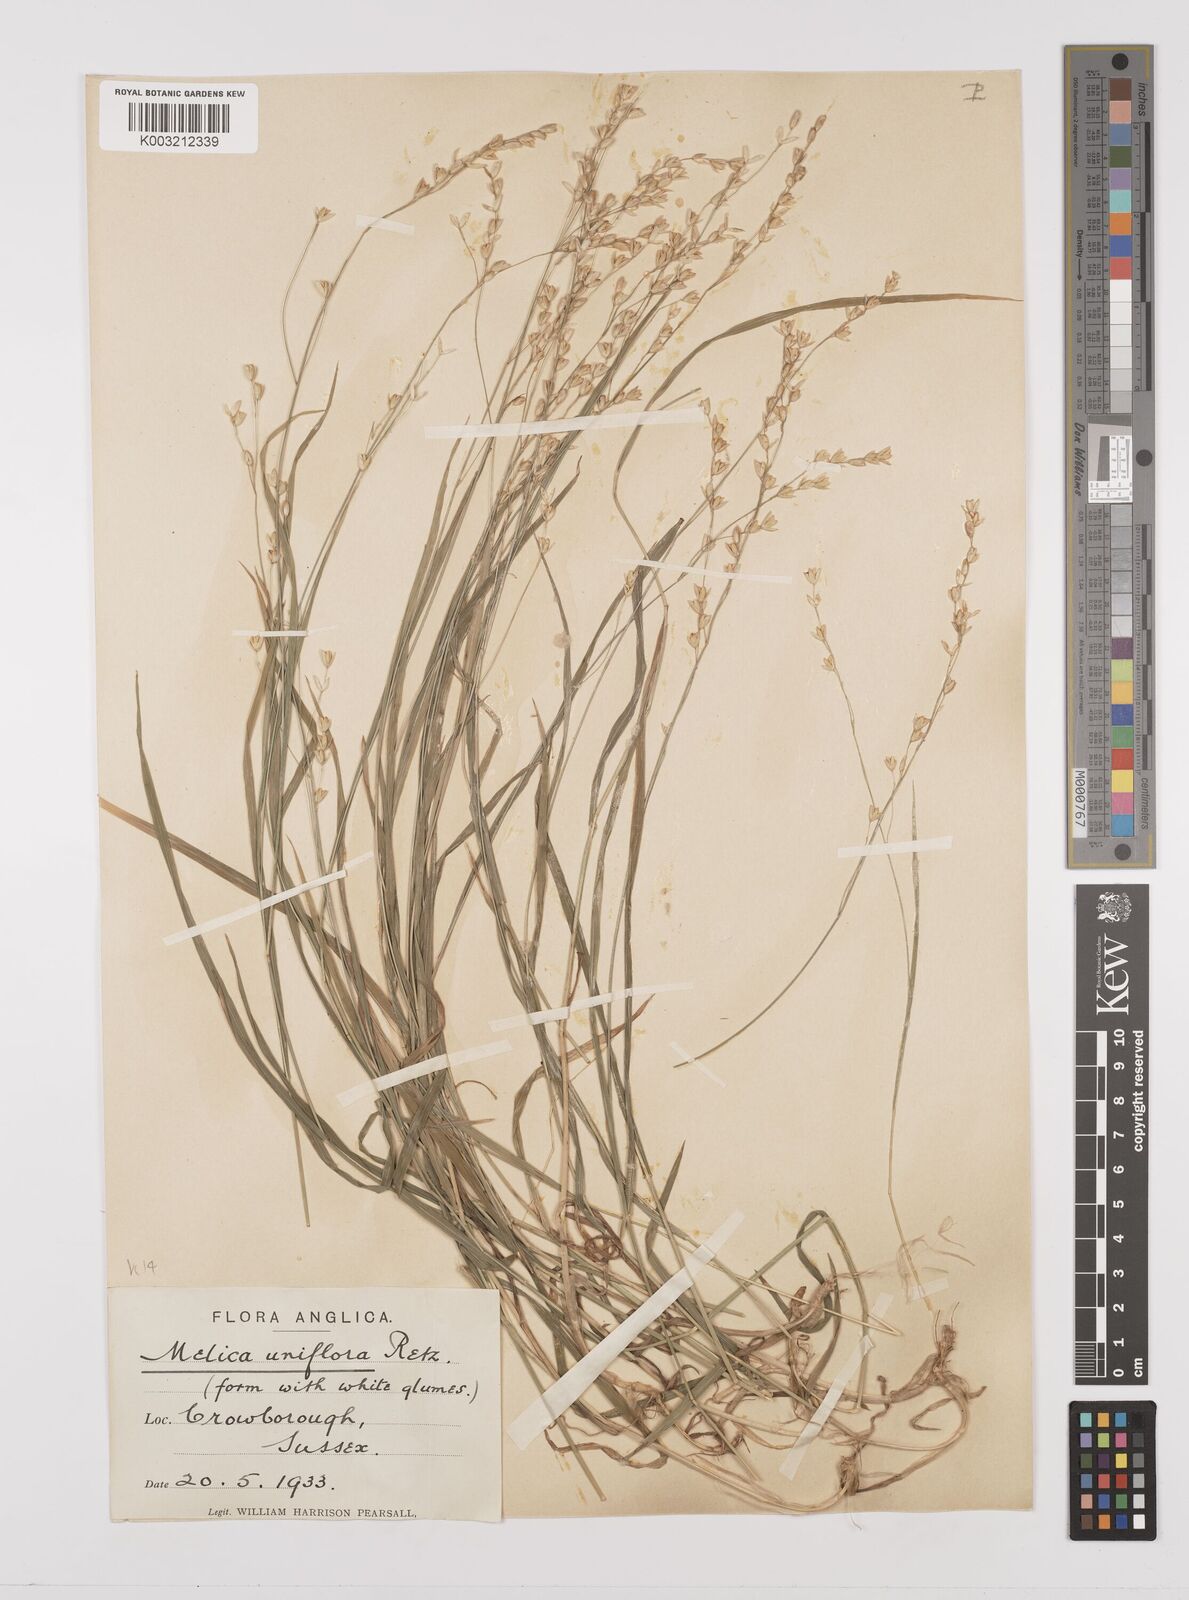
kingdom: Plantae
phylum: Tracheophyta
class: Liliopsida
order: Poales
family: Poaceae
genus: Melica
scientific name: Melica uniflora
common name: Wood melick
